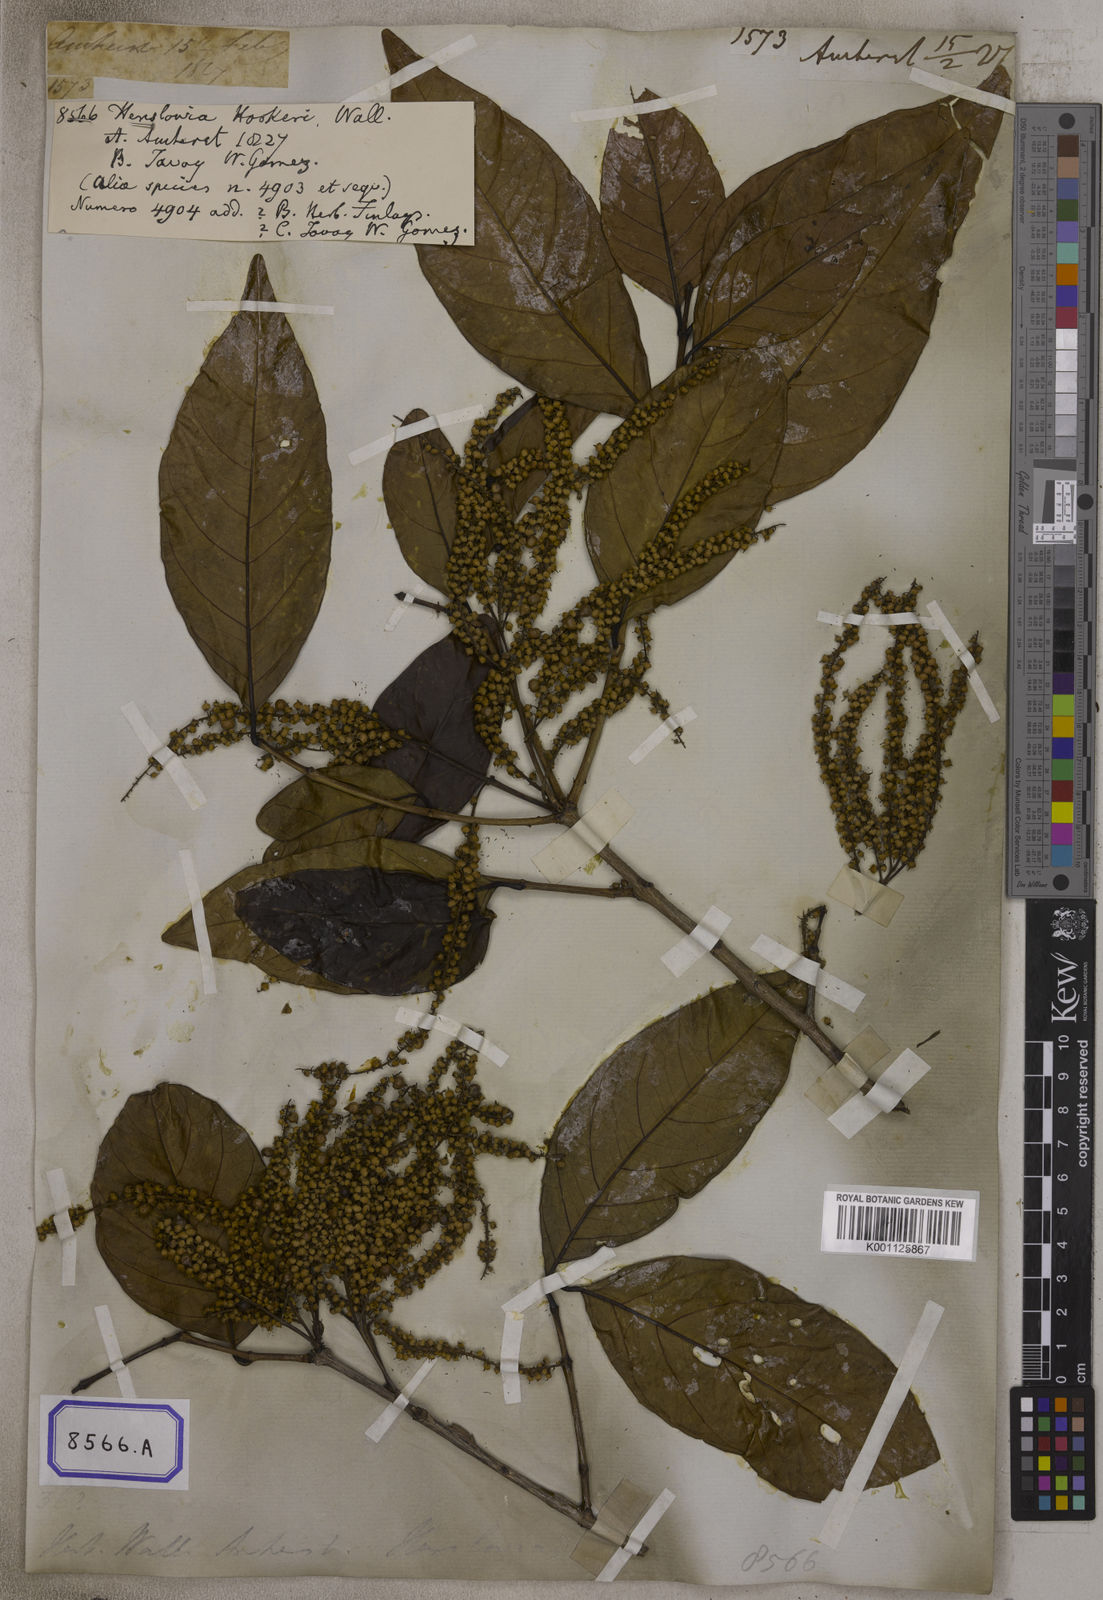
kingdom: Plantae
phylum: Tracheophyta
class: Magnoliopsida
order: Myrtales
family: Crypteroniaceae
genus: Crypteronia
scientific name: Crypteronia paniculata
